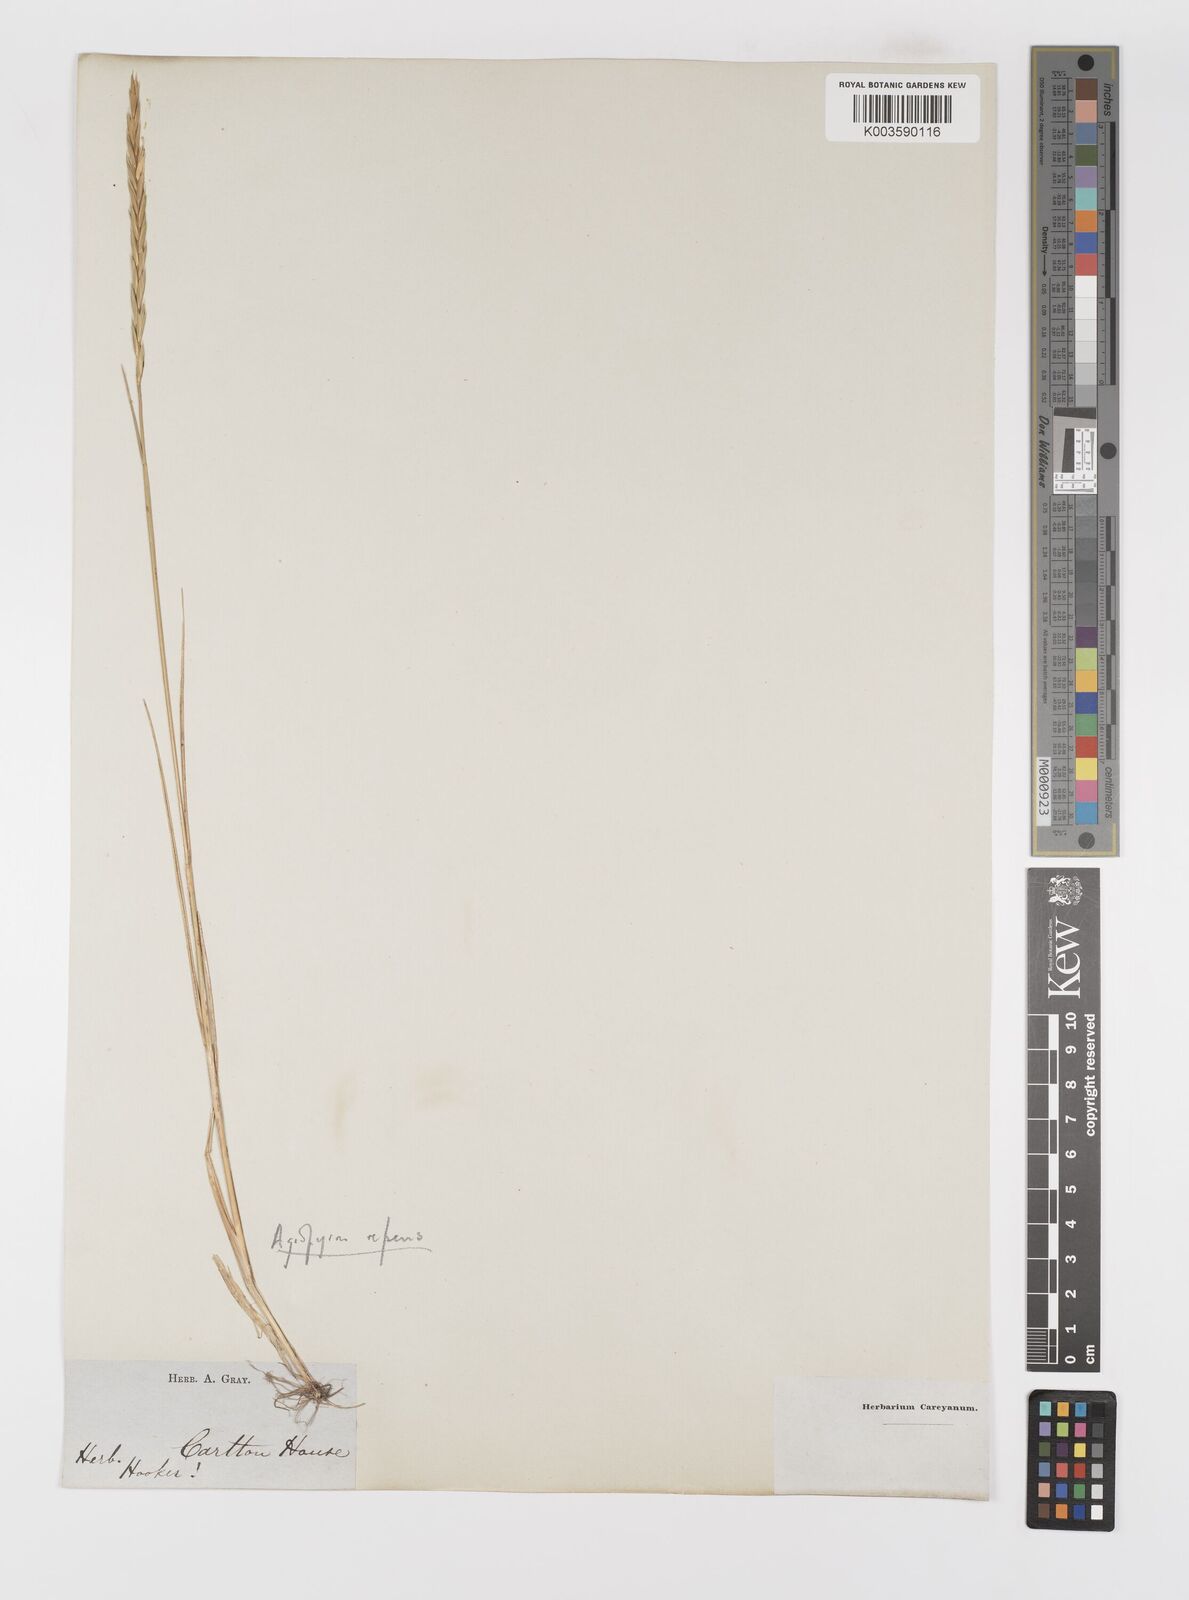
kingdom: Plantae
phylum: Tracheophyta
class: Liliopsida
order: Poales
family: Poaceae
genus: Elymus
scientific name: Elymus repens
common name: Quackgrass
